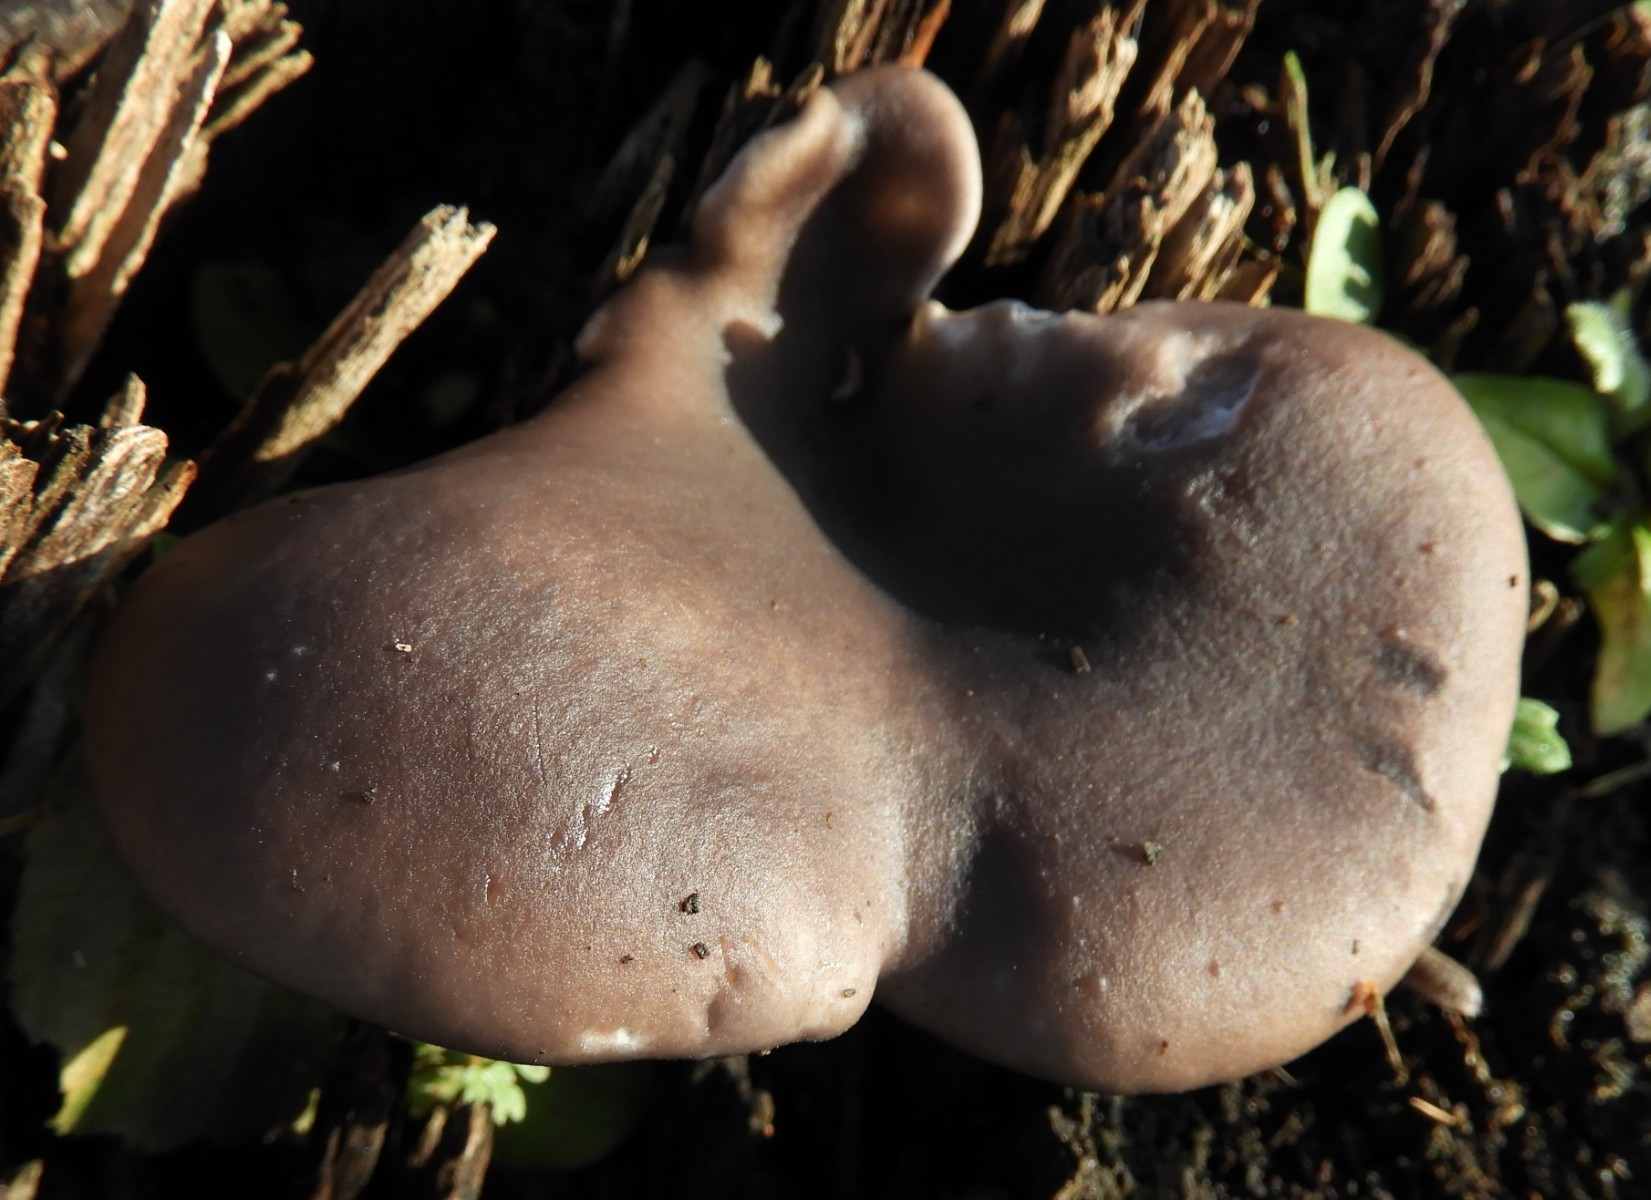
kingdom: Fungi
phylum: Basidiomycota
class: Agaricomycetes
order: Agaricales
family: Pleurotaceae
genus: Pleurotus
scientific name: Pleurotus ostreatus
